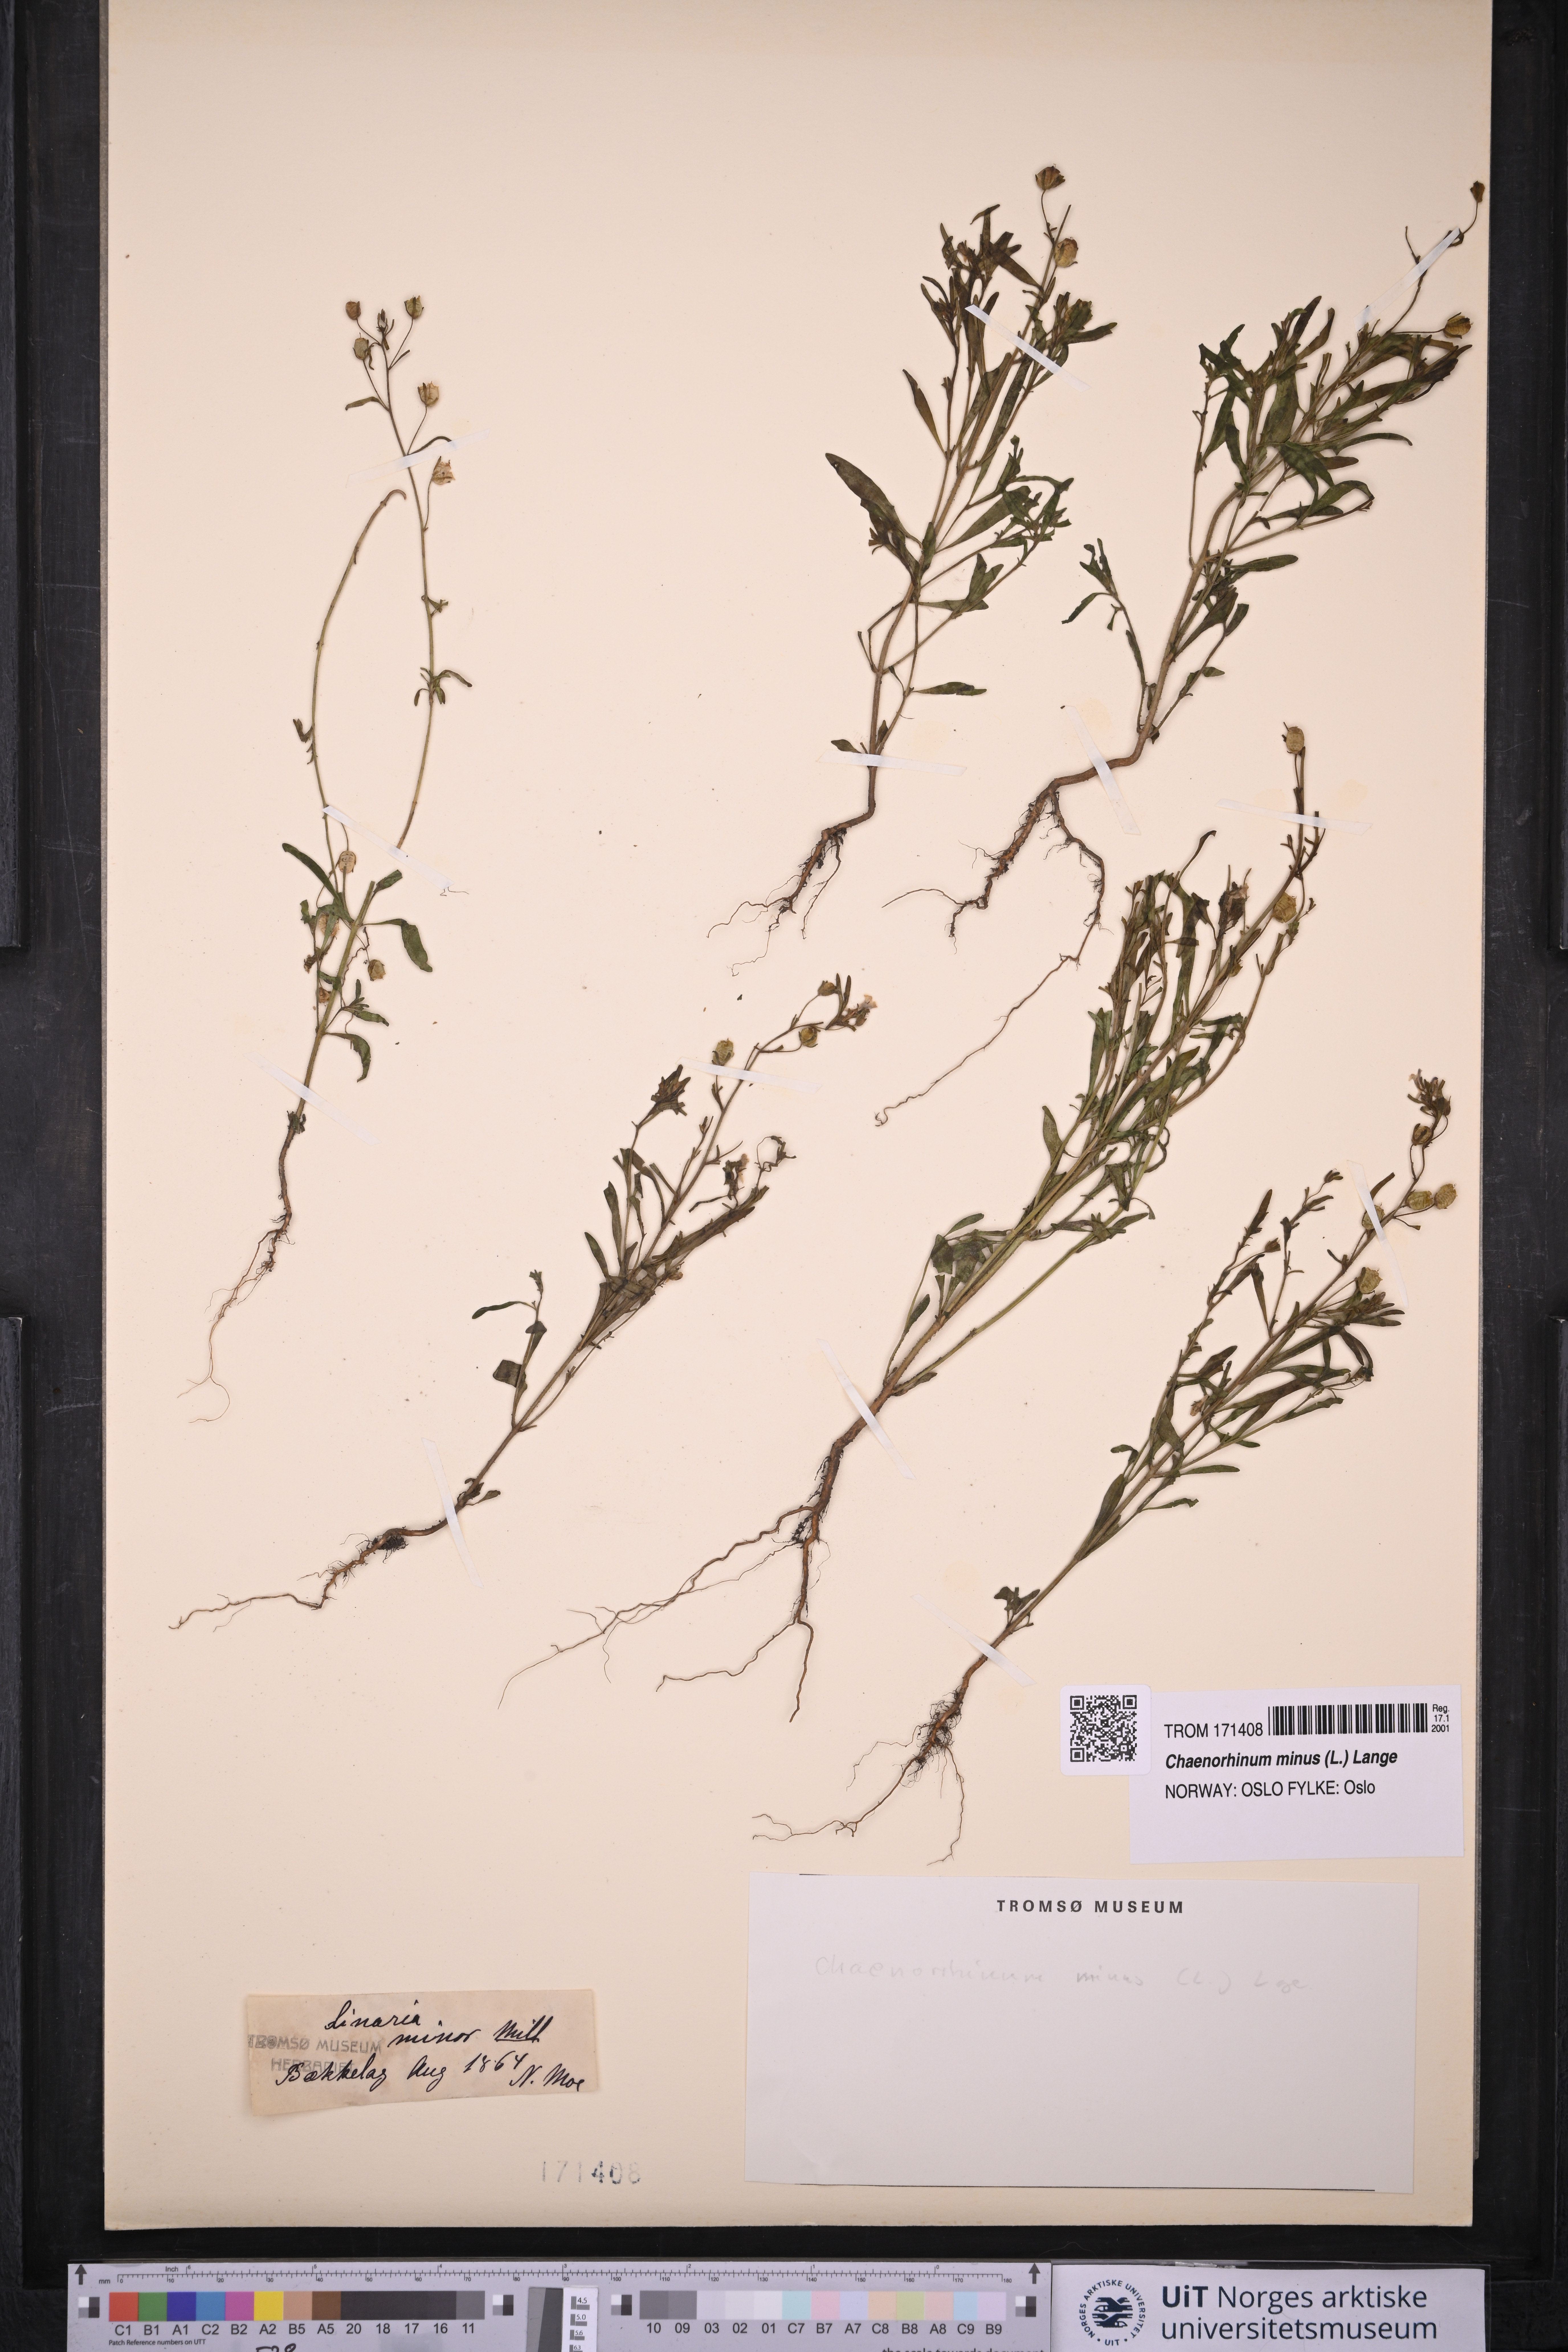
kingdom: Plantae
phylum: Tracheophyta
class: Magnoliopsida
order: Lamiales
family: Plantaginaceae
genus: Chaenorhinum
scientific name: Chaenorhinum minus
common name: Dwarf snapdragon
